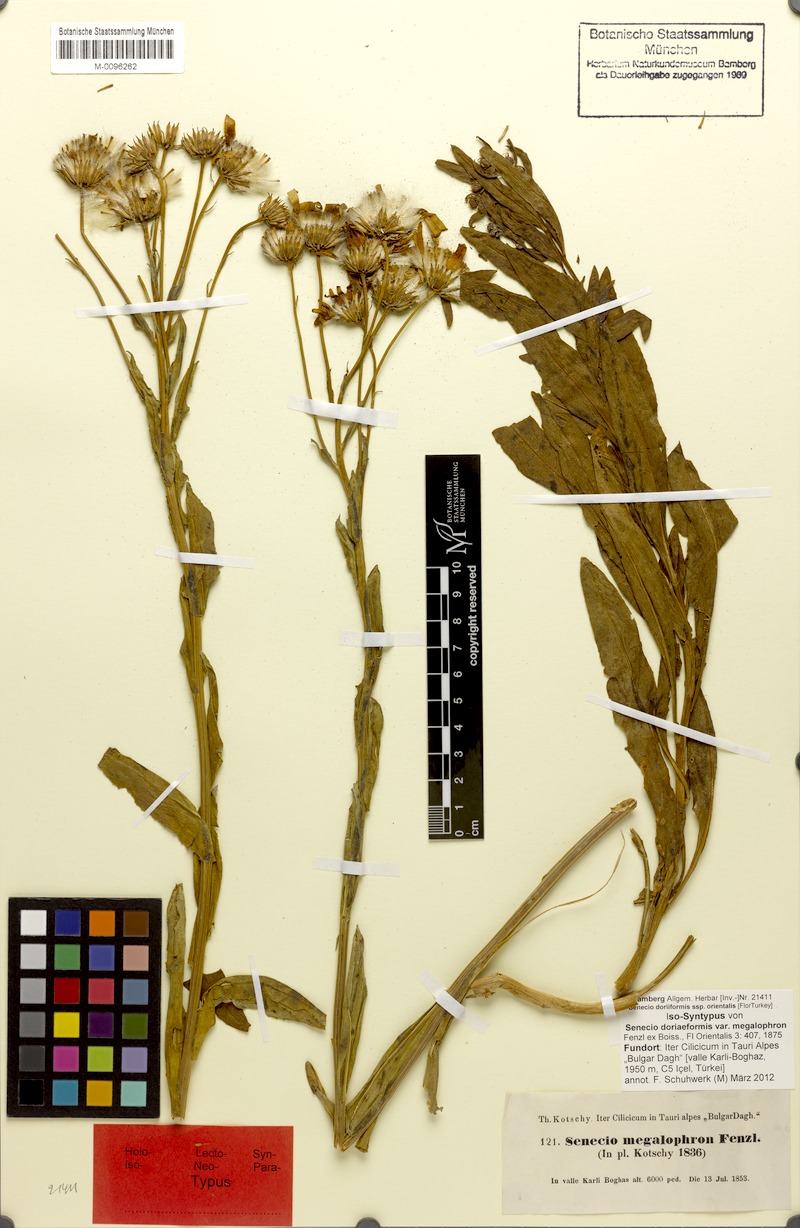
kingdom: Plantae
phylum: Tracheophyta
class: Magnoliopsida
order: Asterales
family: Asteraceae
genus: Senecio
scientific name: Senecio doriiformis
